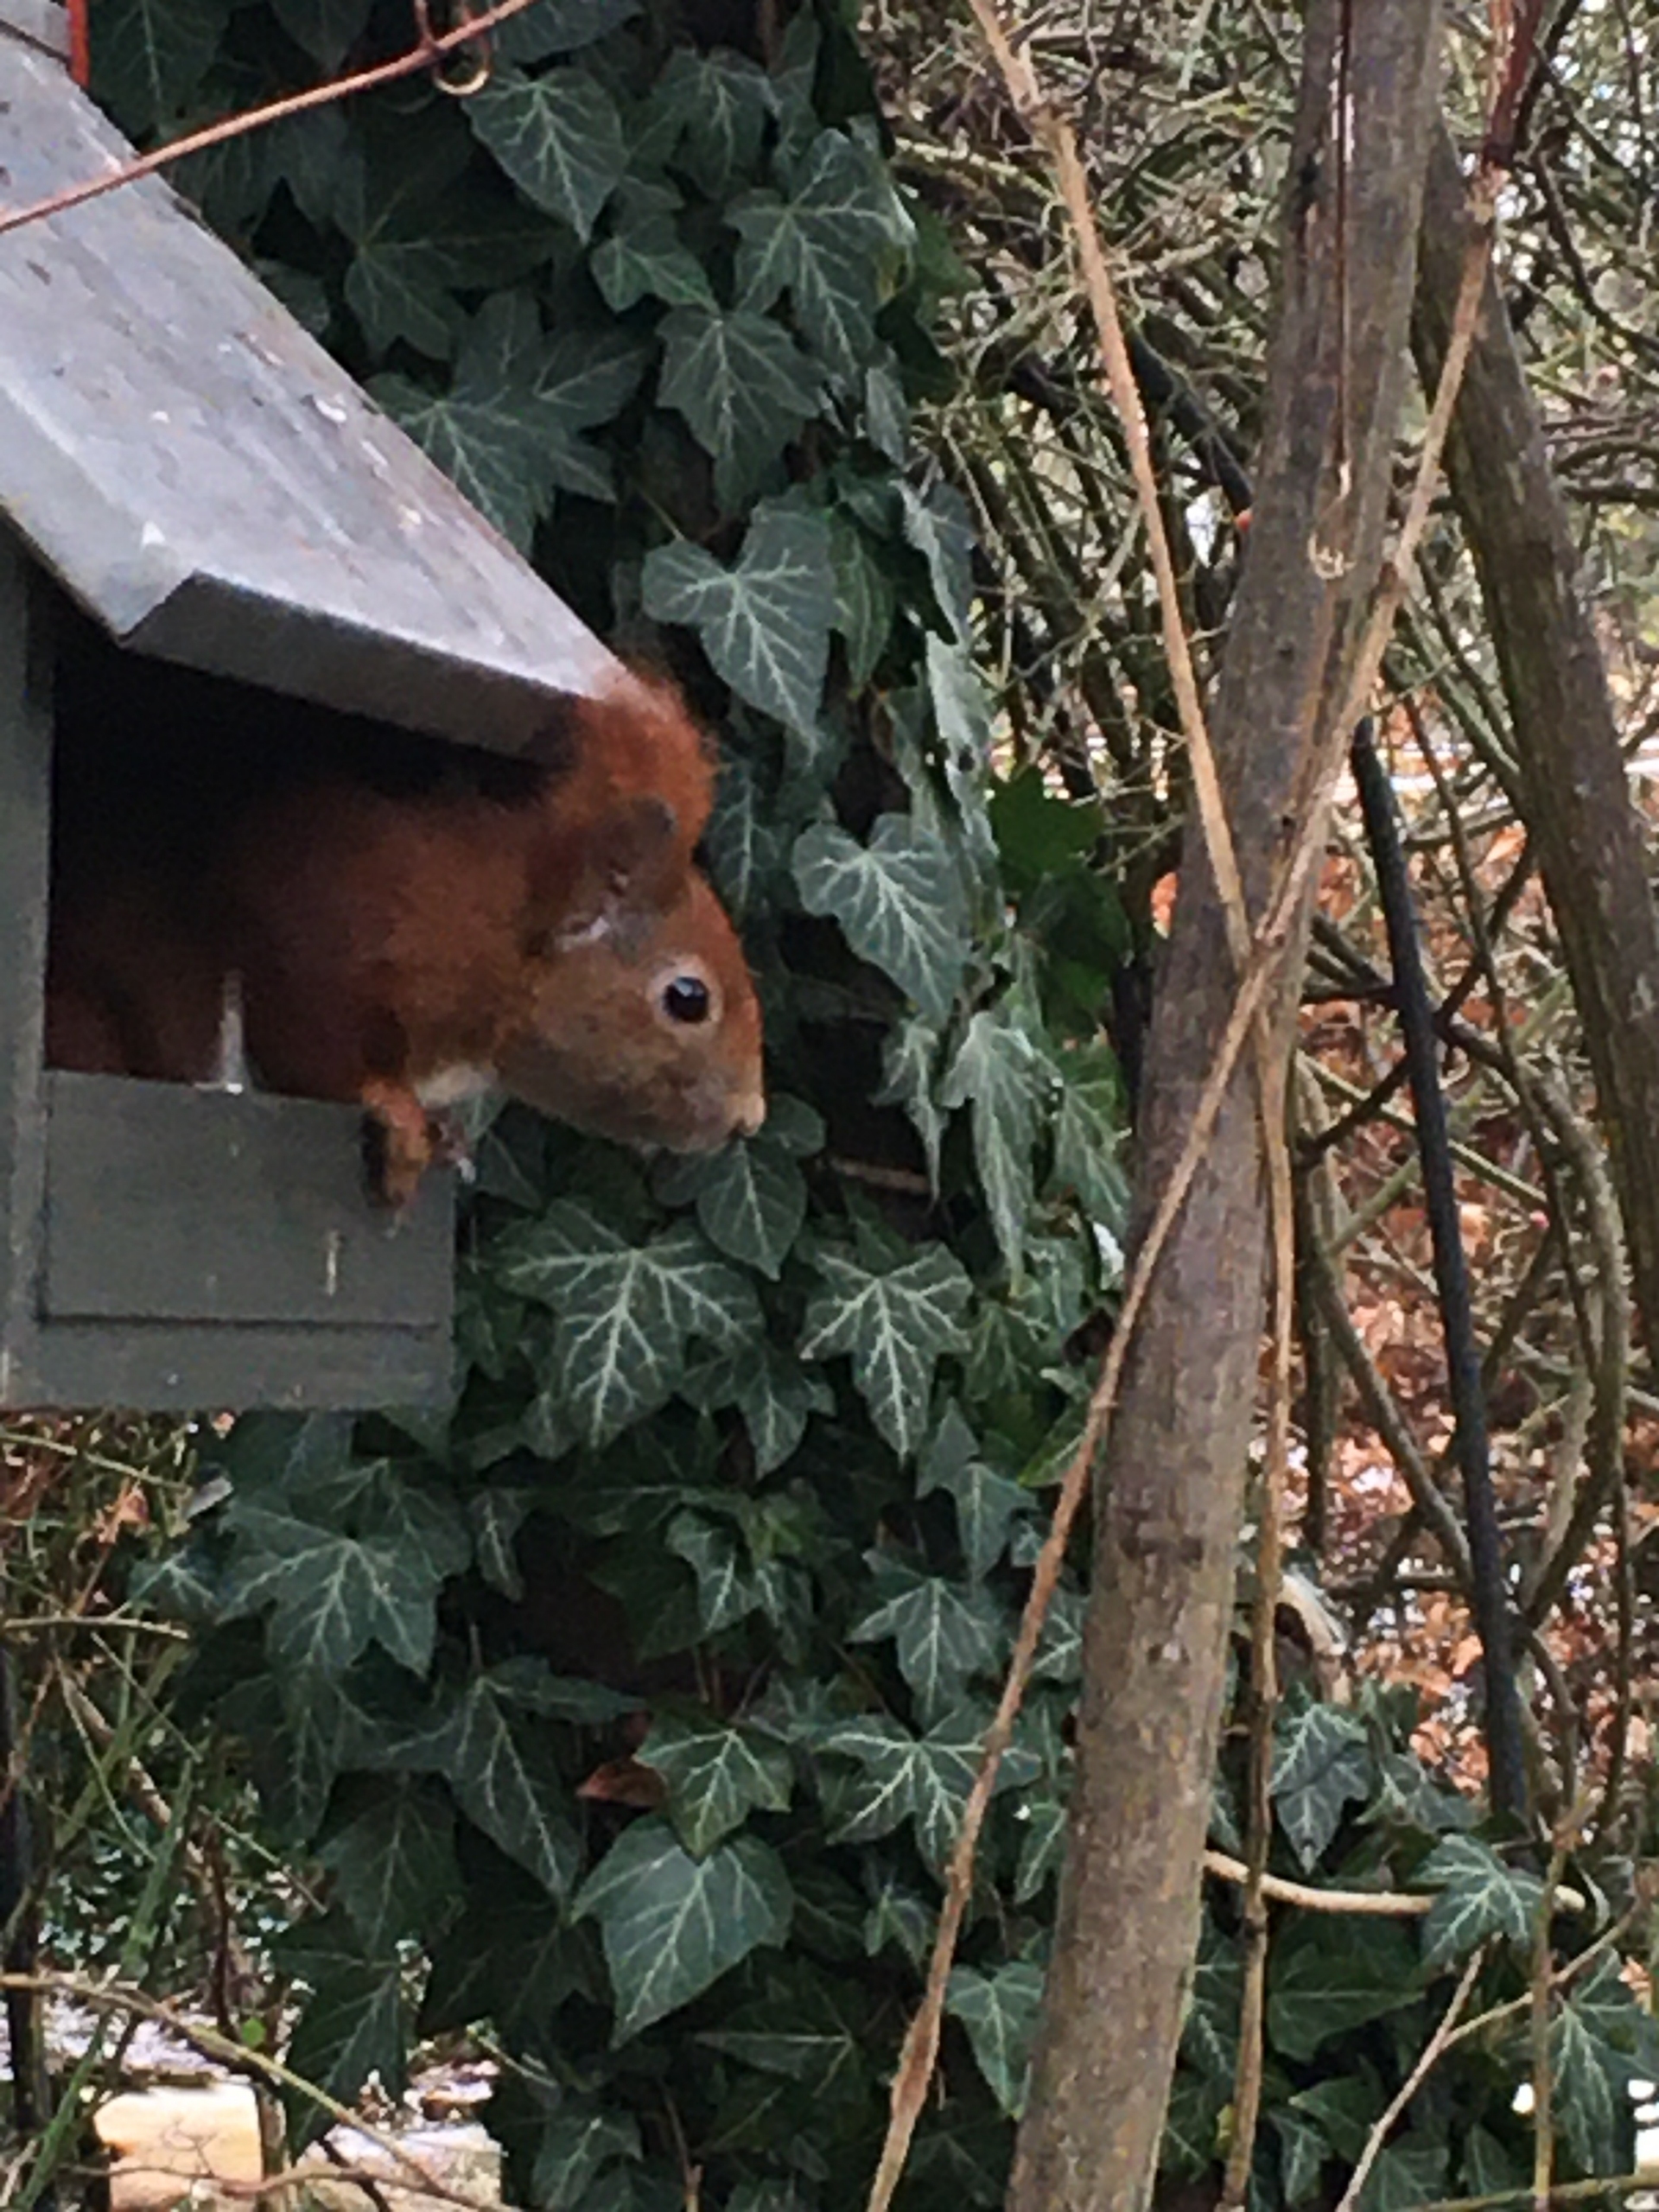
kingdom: Animalia
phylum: Chordata
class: Mammalia
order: Rodentia
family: Sciuridae
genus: Sciurus
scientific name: Sciurus vulgaris
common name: Egern
